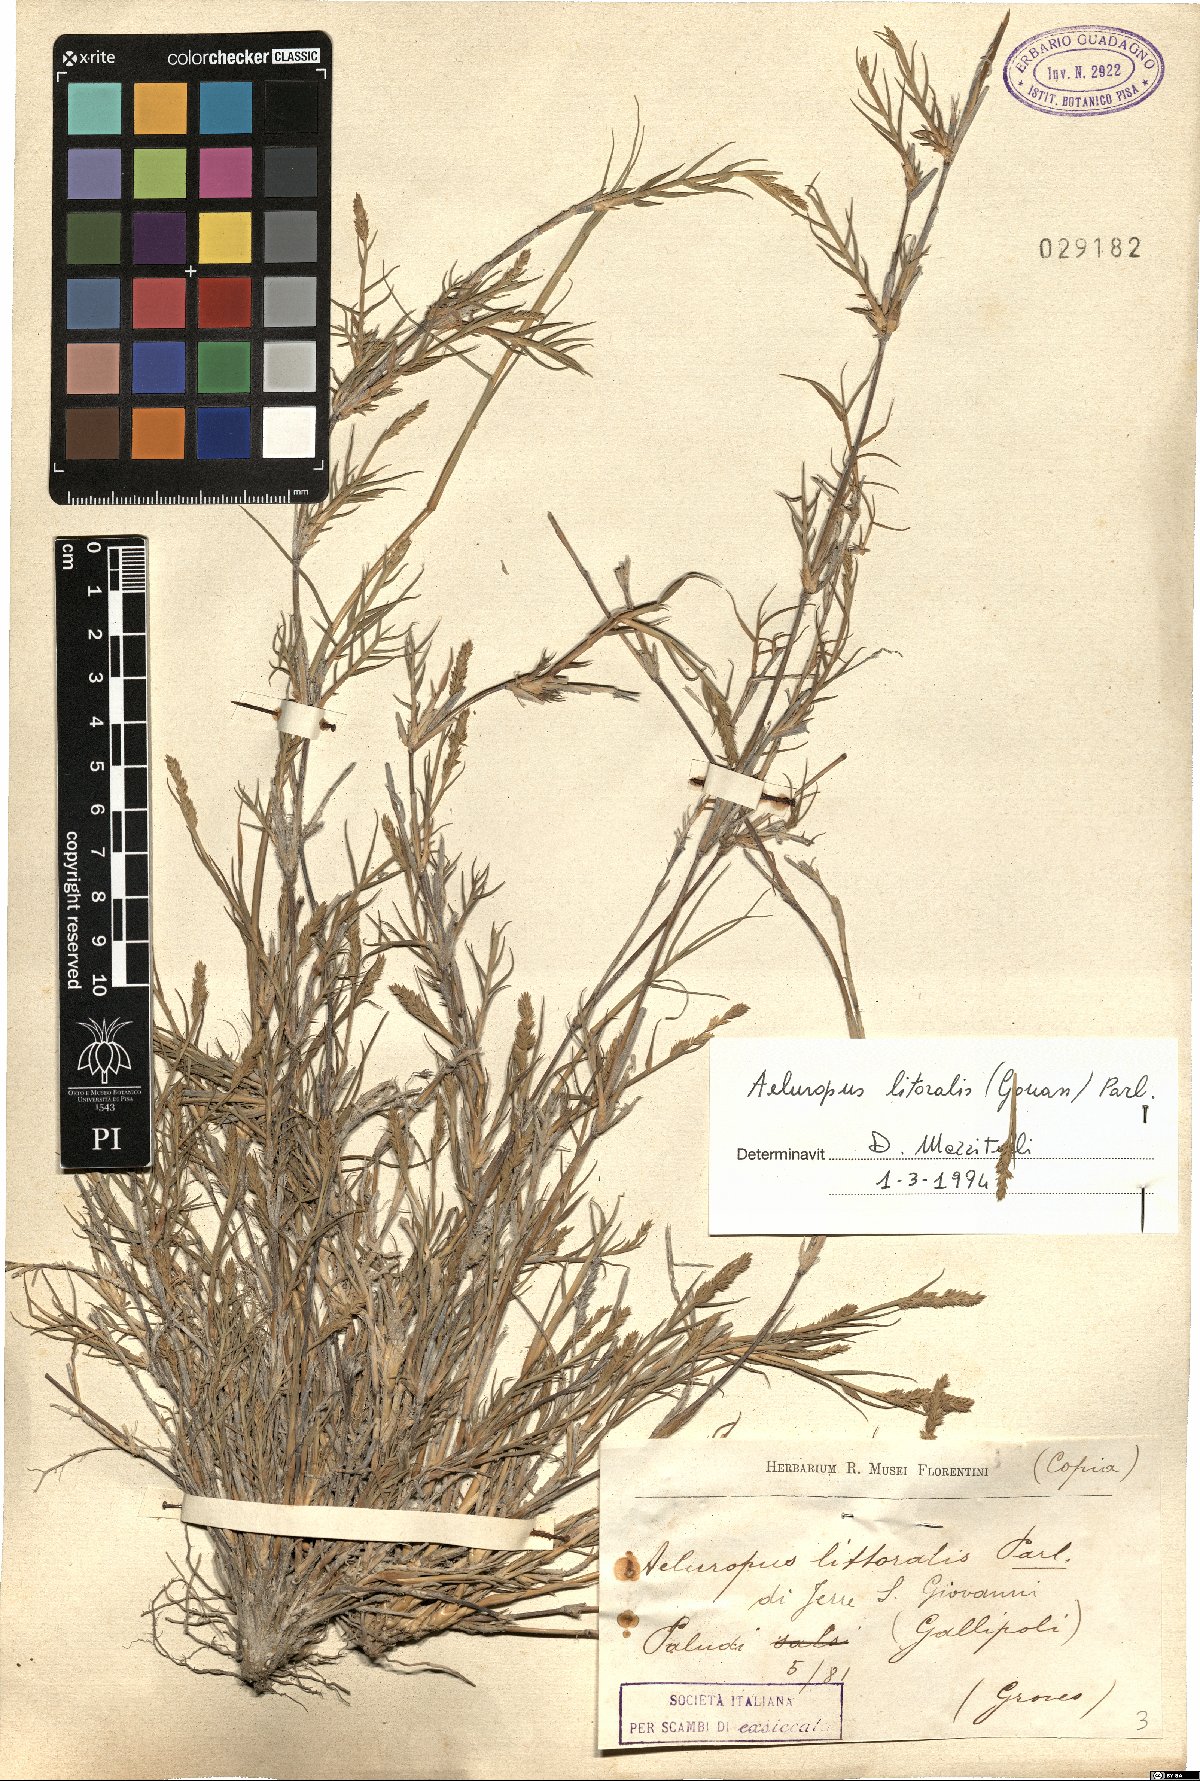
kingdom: Plantae
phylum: Tracheophyta
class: Liliopsida
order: Poales
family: Poaceae
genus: Aeluropus
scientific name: Aeluropus littoralis
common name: Indian walnut
